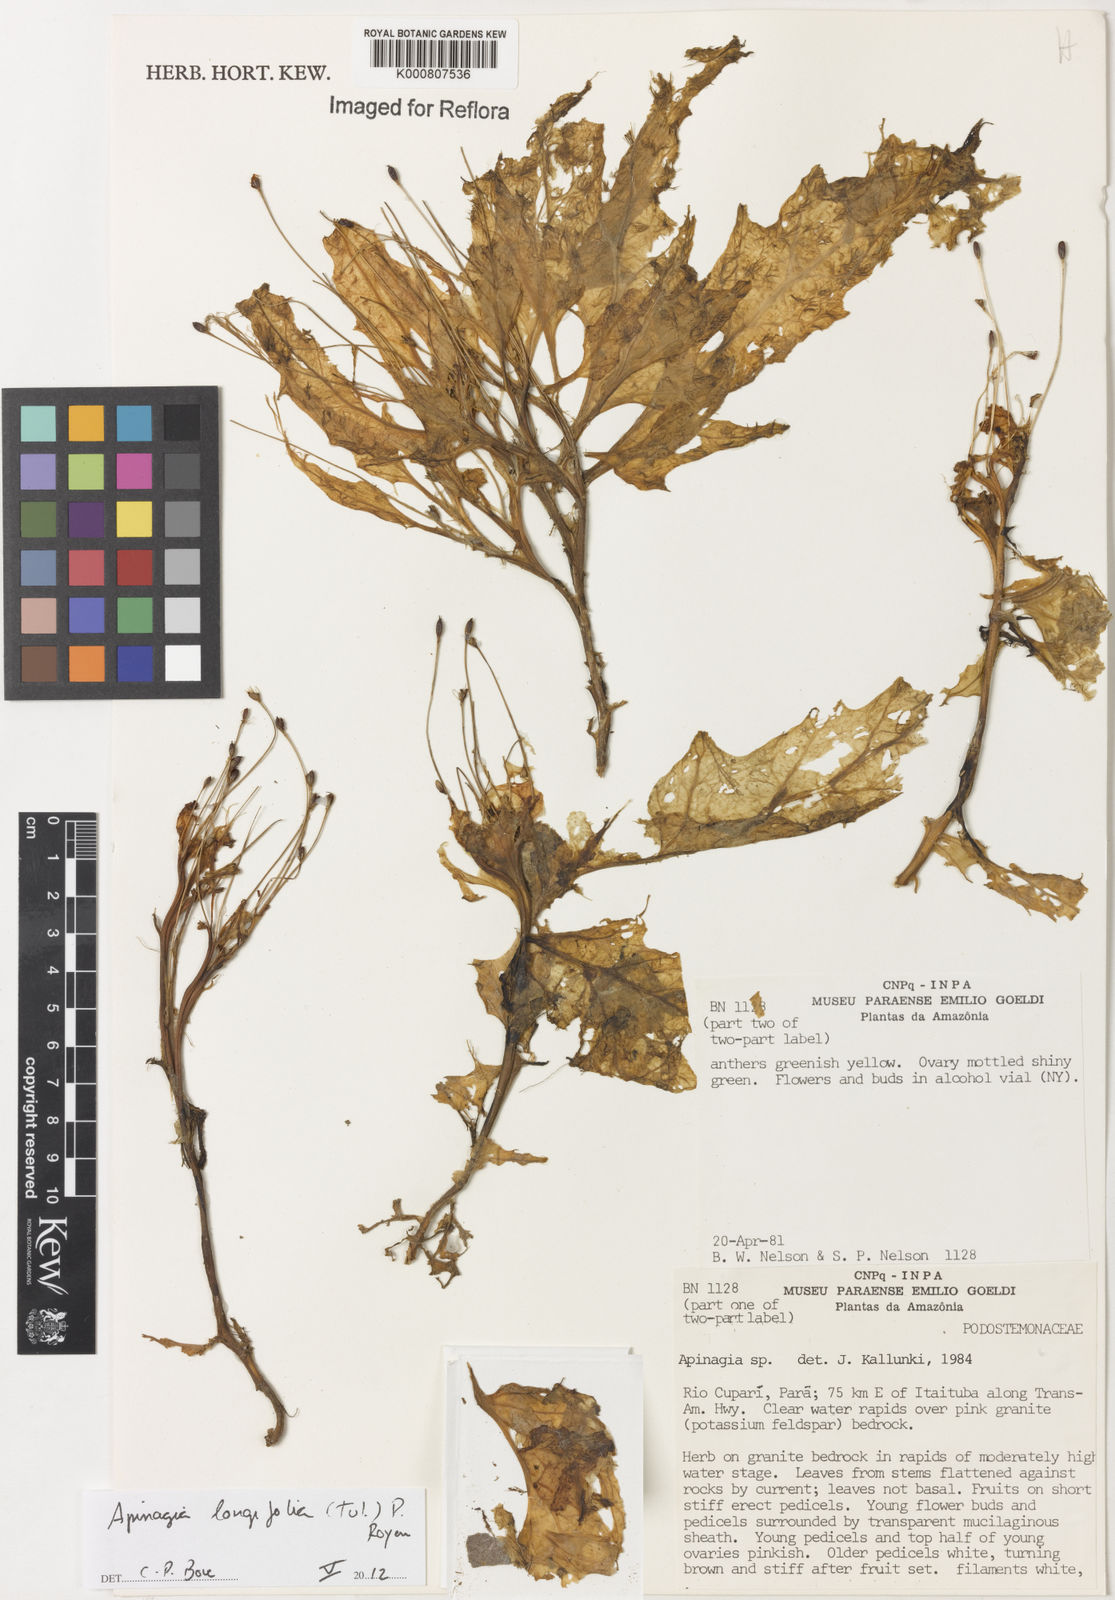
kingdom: Plantae
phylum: Tracheophyta
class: Magnoliopsida
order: Malpighiales
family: Podostemaceae
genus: Apinagia
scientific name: Apinagia longifolia
